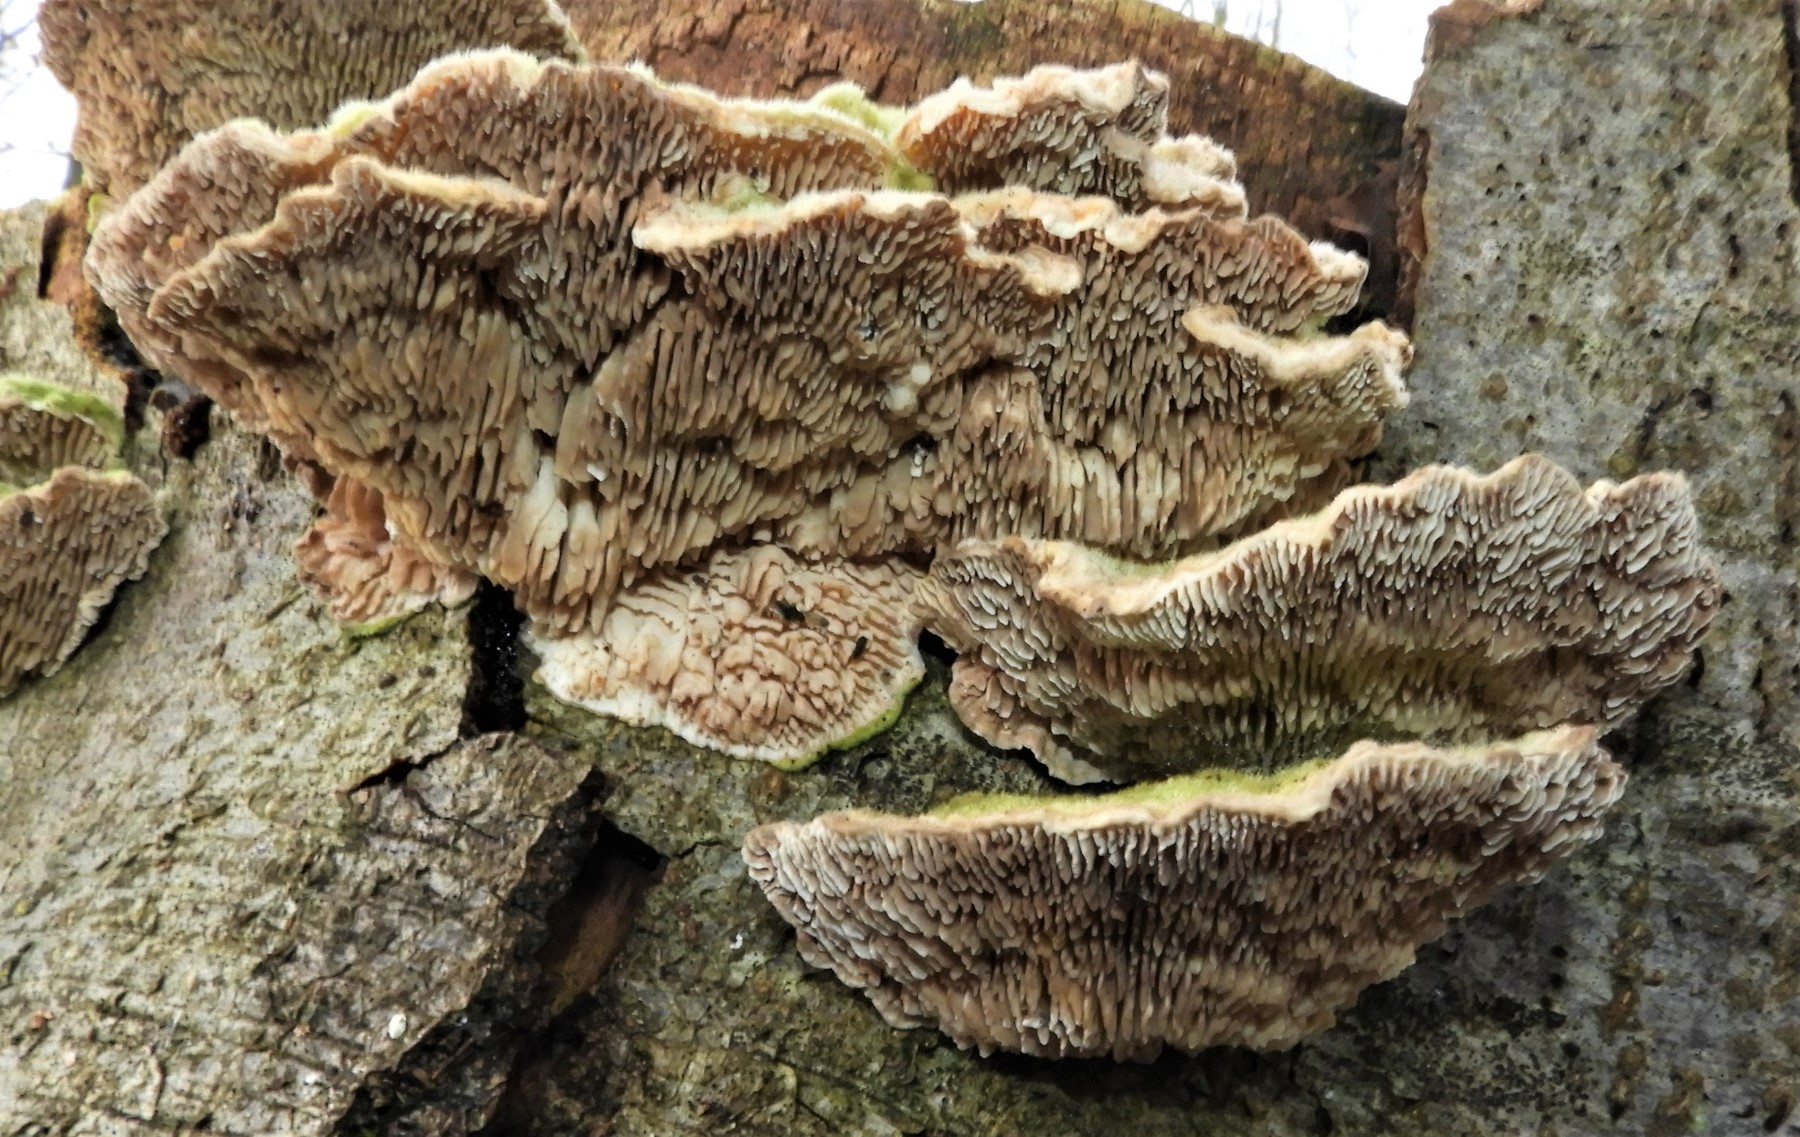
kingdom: Fungi
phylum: Basidiomycota
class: Agaricomycetes
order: Polyporales
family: Polyporaceae
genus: Lenzites
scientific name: Lenzites betulinus
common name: birke-læderporesvamp
